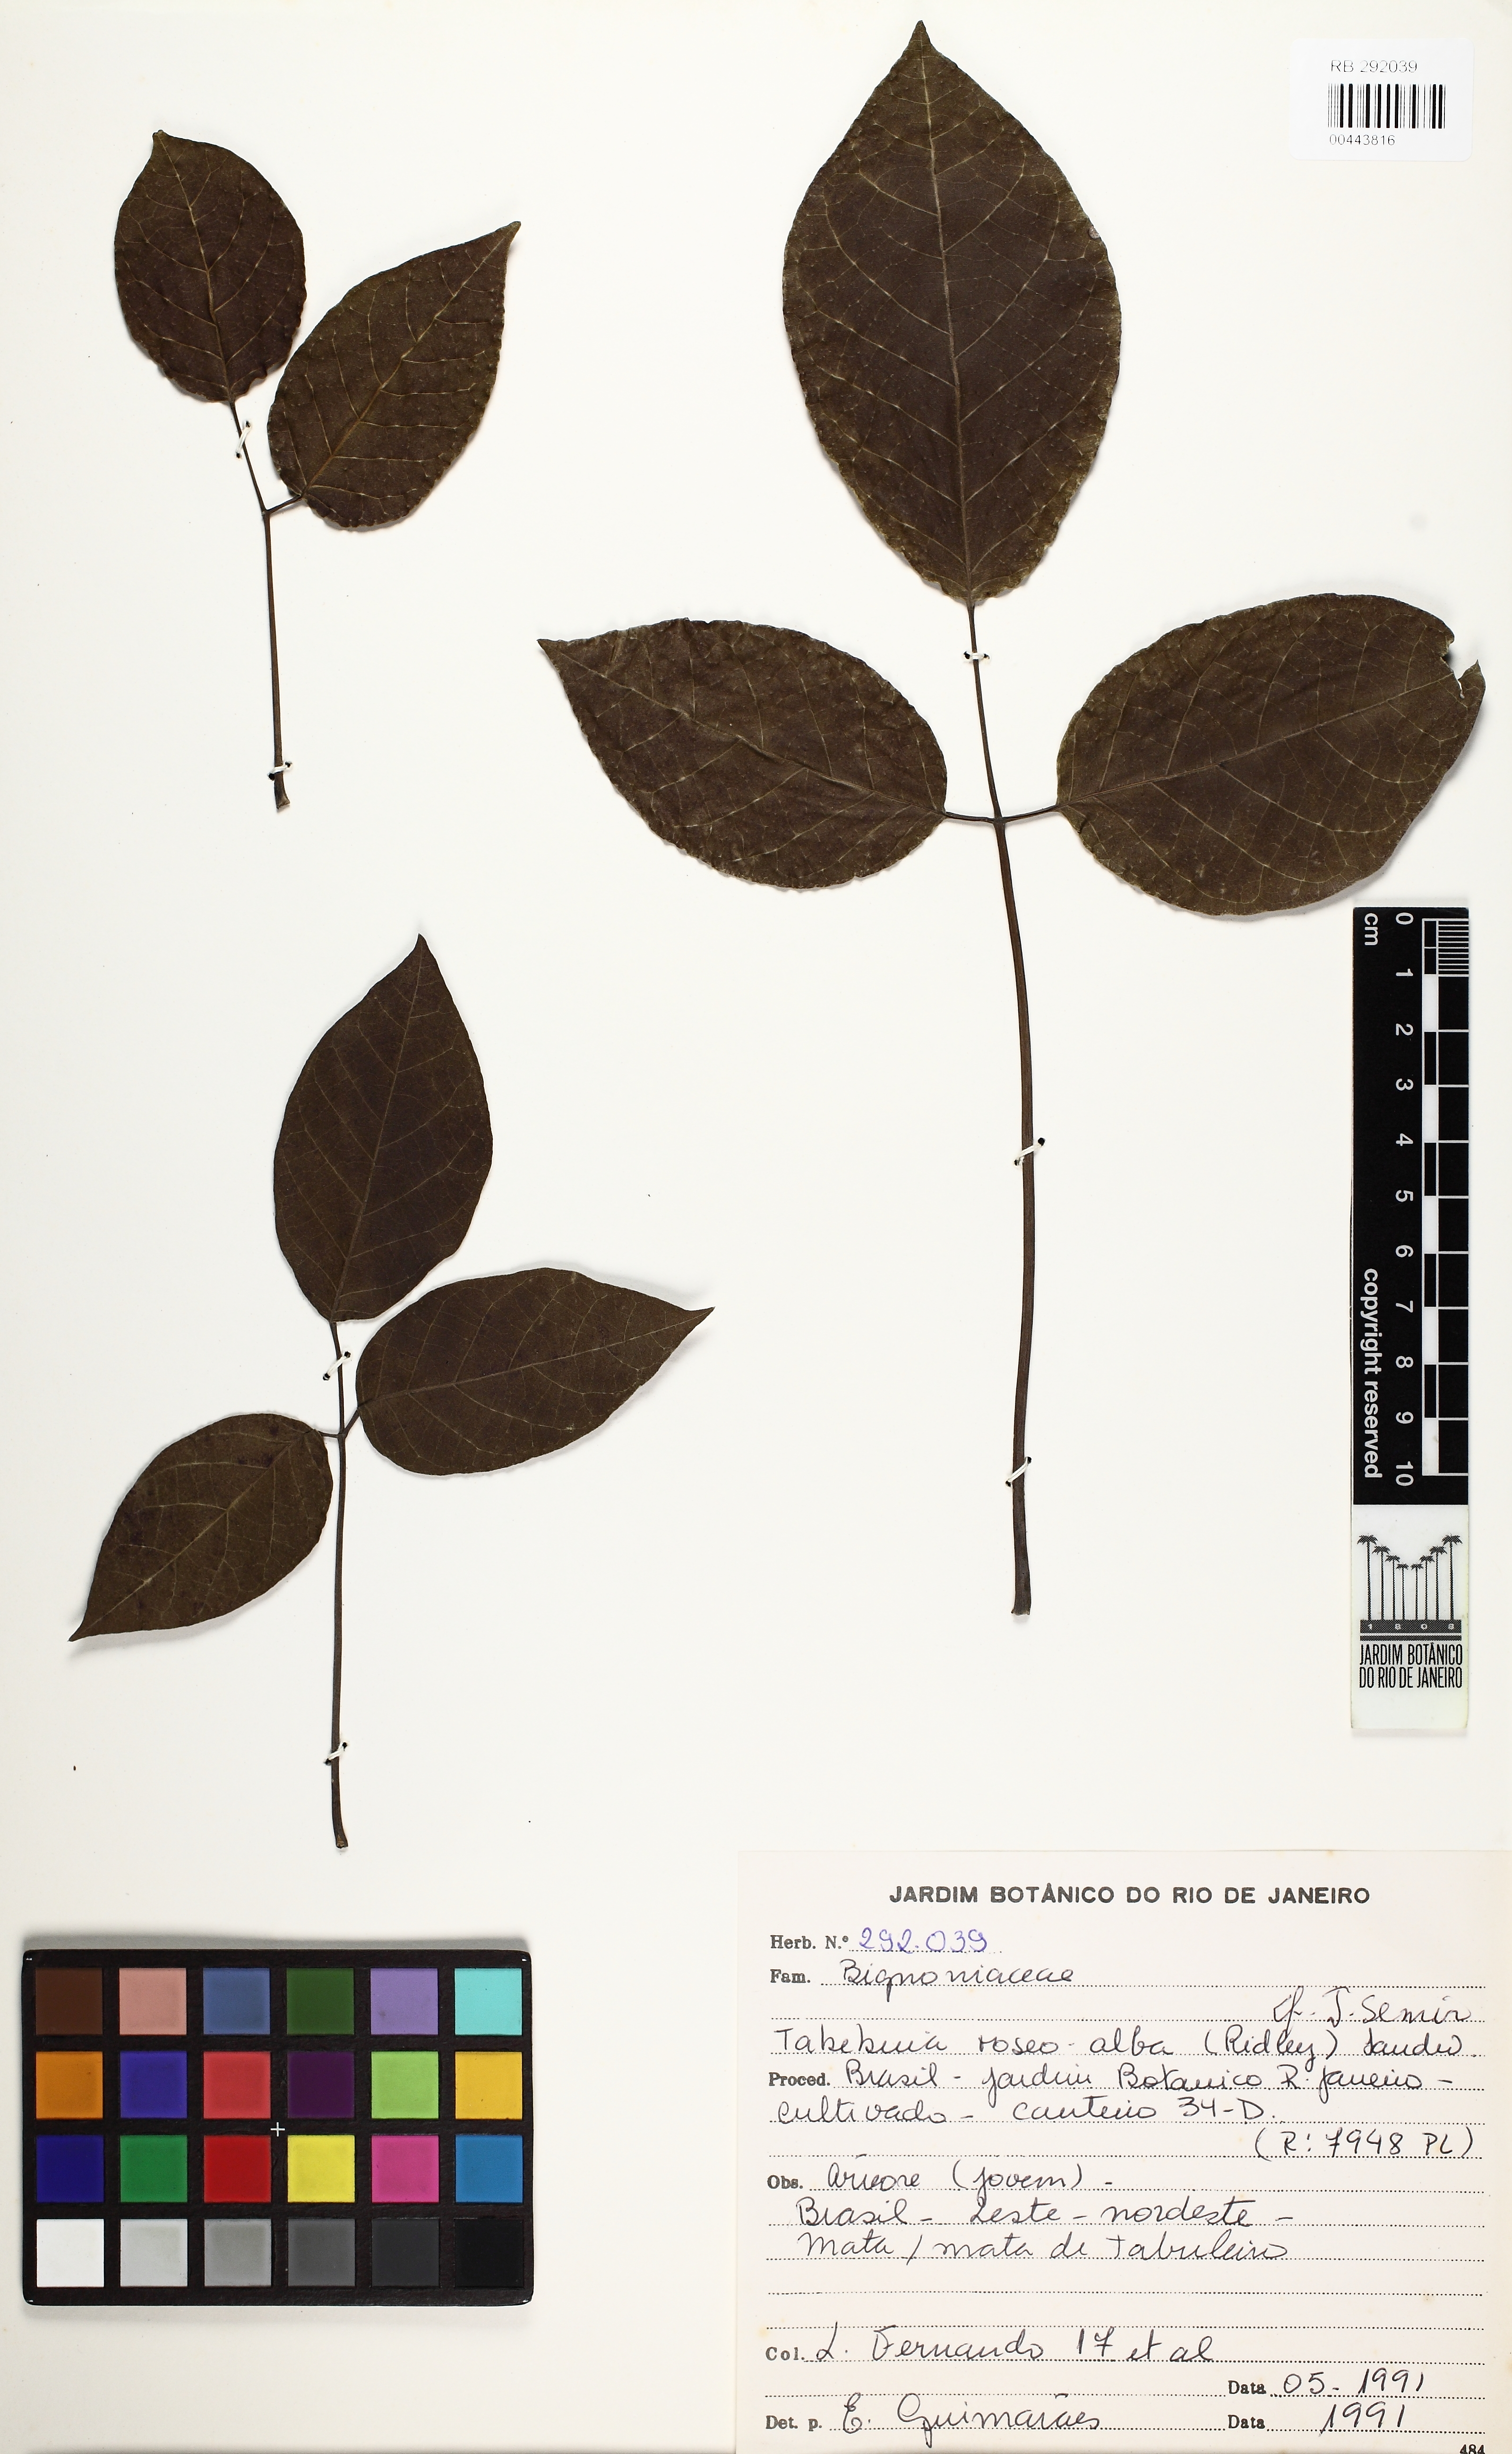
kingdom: Plantae
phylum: Tracheophyta
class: Magnoliopsida
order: Lamiales
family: Bignoniaceae
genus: Tabebuia
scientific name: Tabebuia roseoalba
